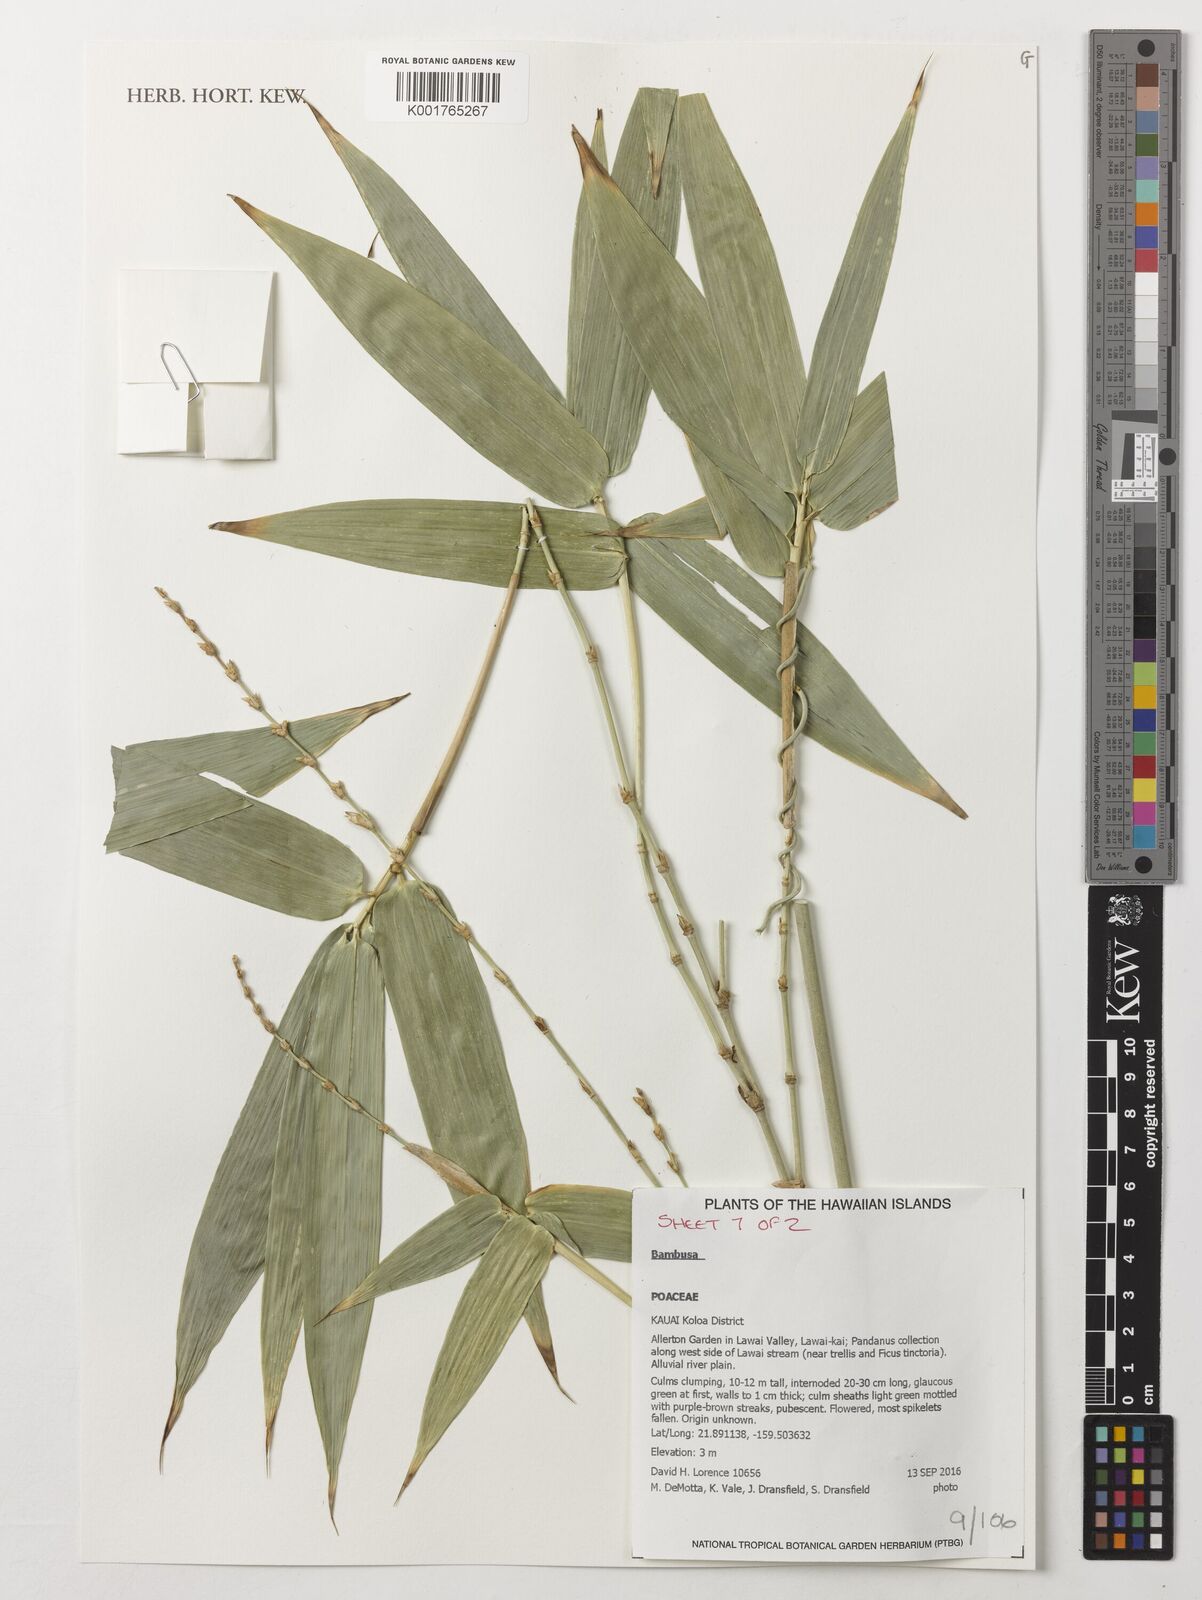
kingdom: Plantae
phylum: Tracheophyta
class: Liliopsida
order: Poales
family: Poaceae
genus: Bambusa
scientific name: Bambusa
